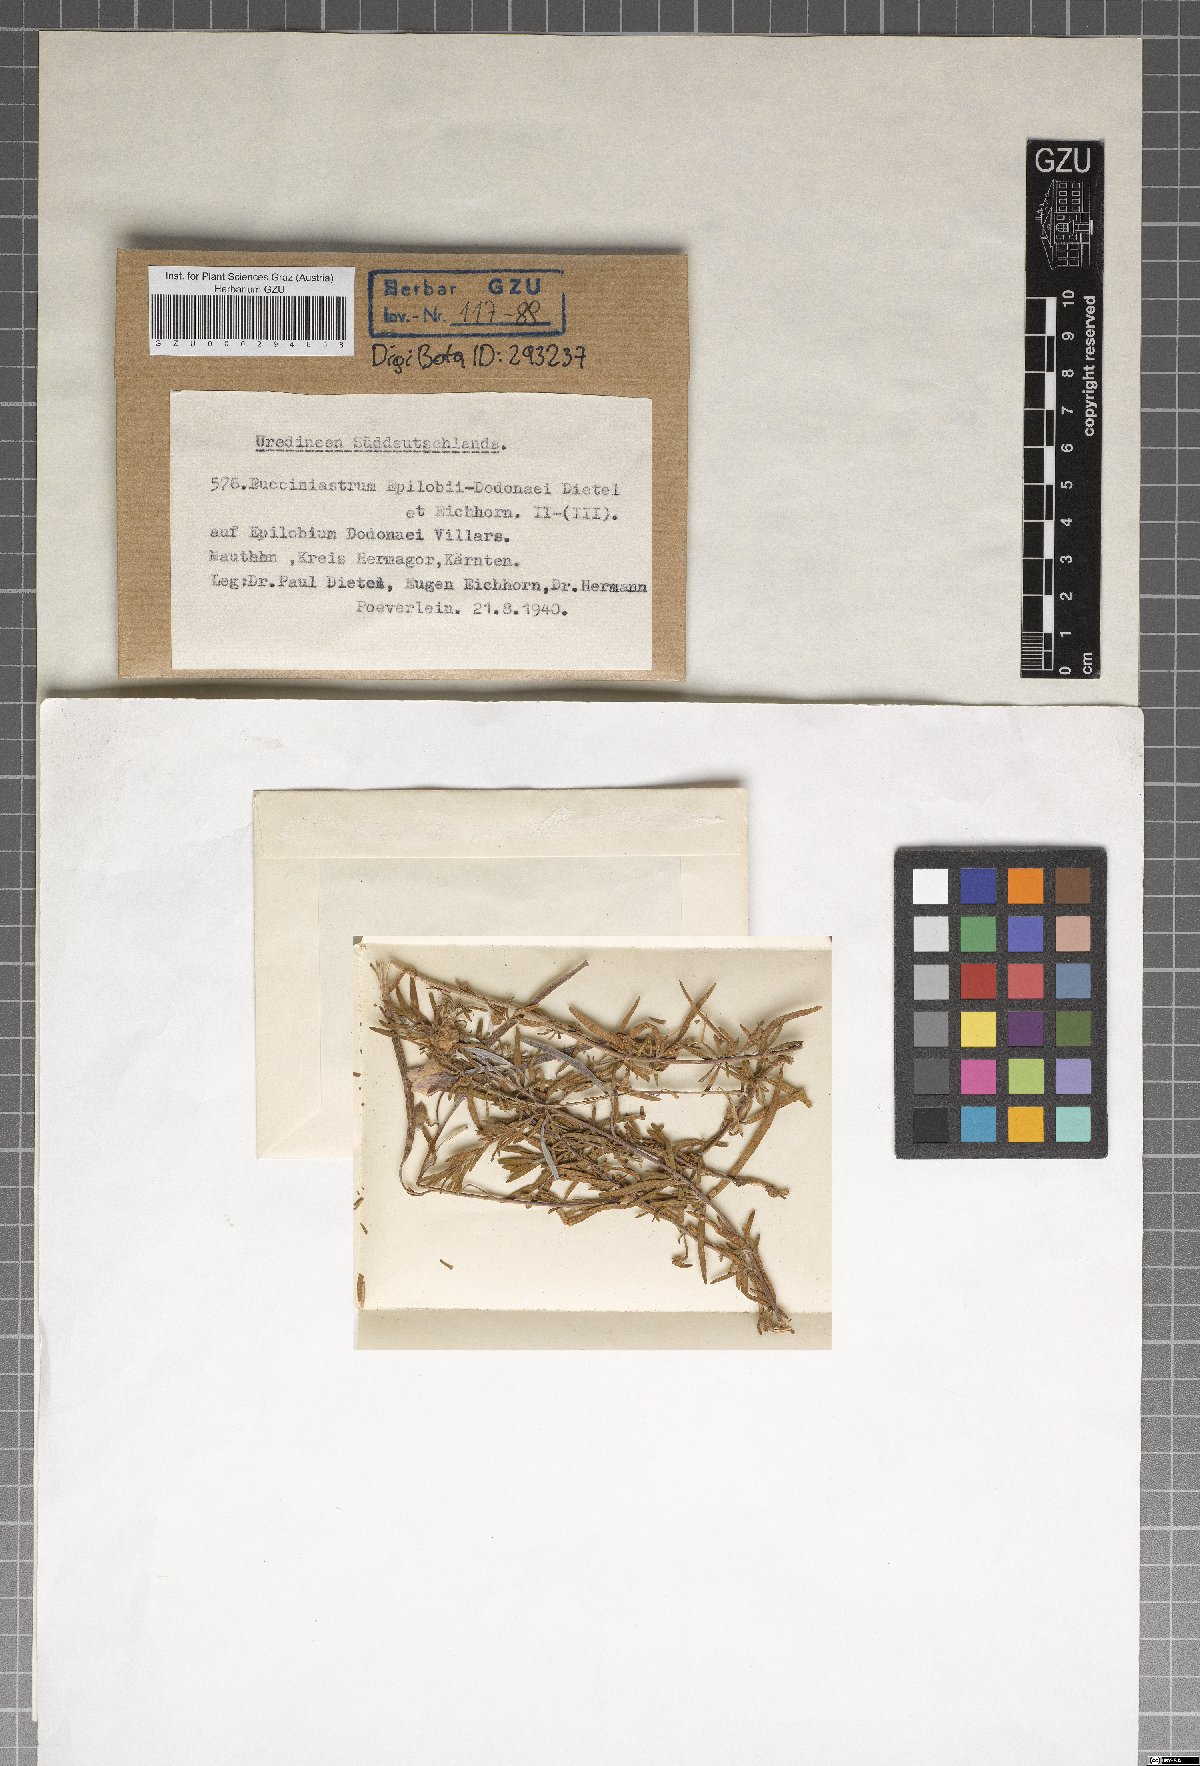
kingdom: Fungi
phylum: Basidiomycota
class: Pucciniomycetes
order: Pucciniales
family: Pucciniastraceae
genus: Pucciniastrum
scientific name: Pucciniastrum epilobii-dodonaei
